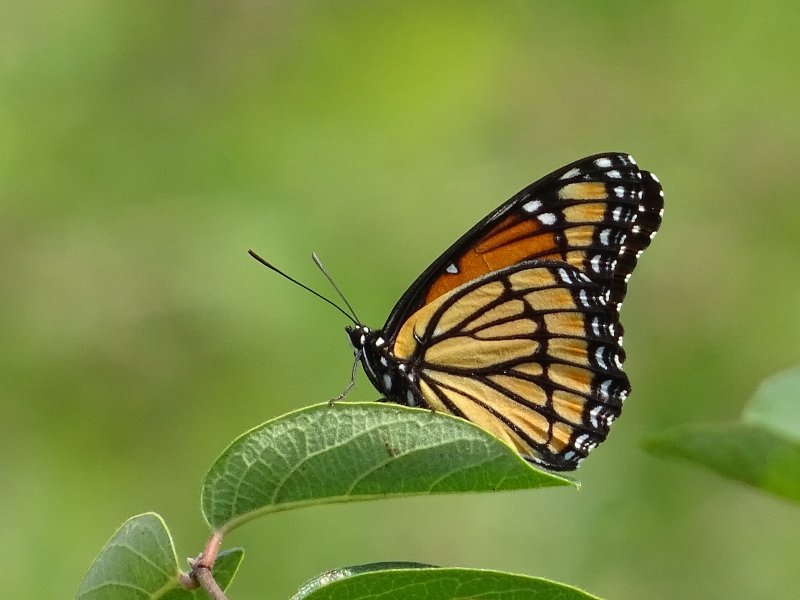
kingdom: Animalia
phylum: Arthropoda
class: Insecta
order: Lepidoptera
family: Nymphalidae
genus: Limenitis
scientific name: Limenitis archippus
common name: Viceroy
